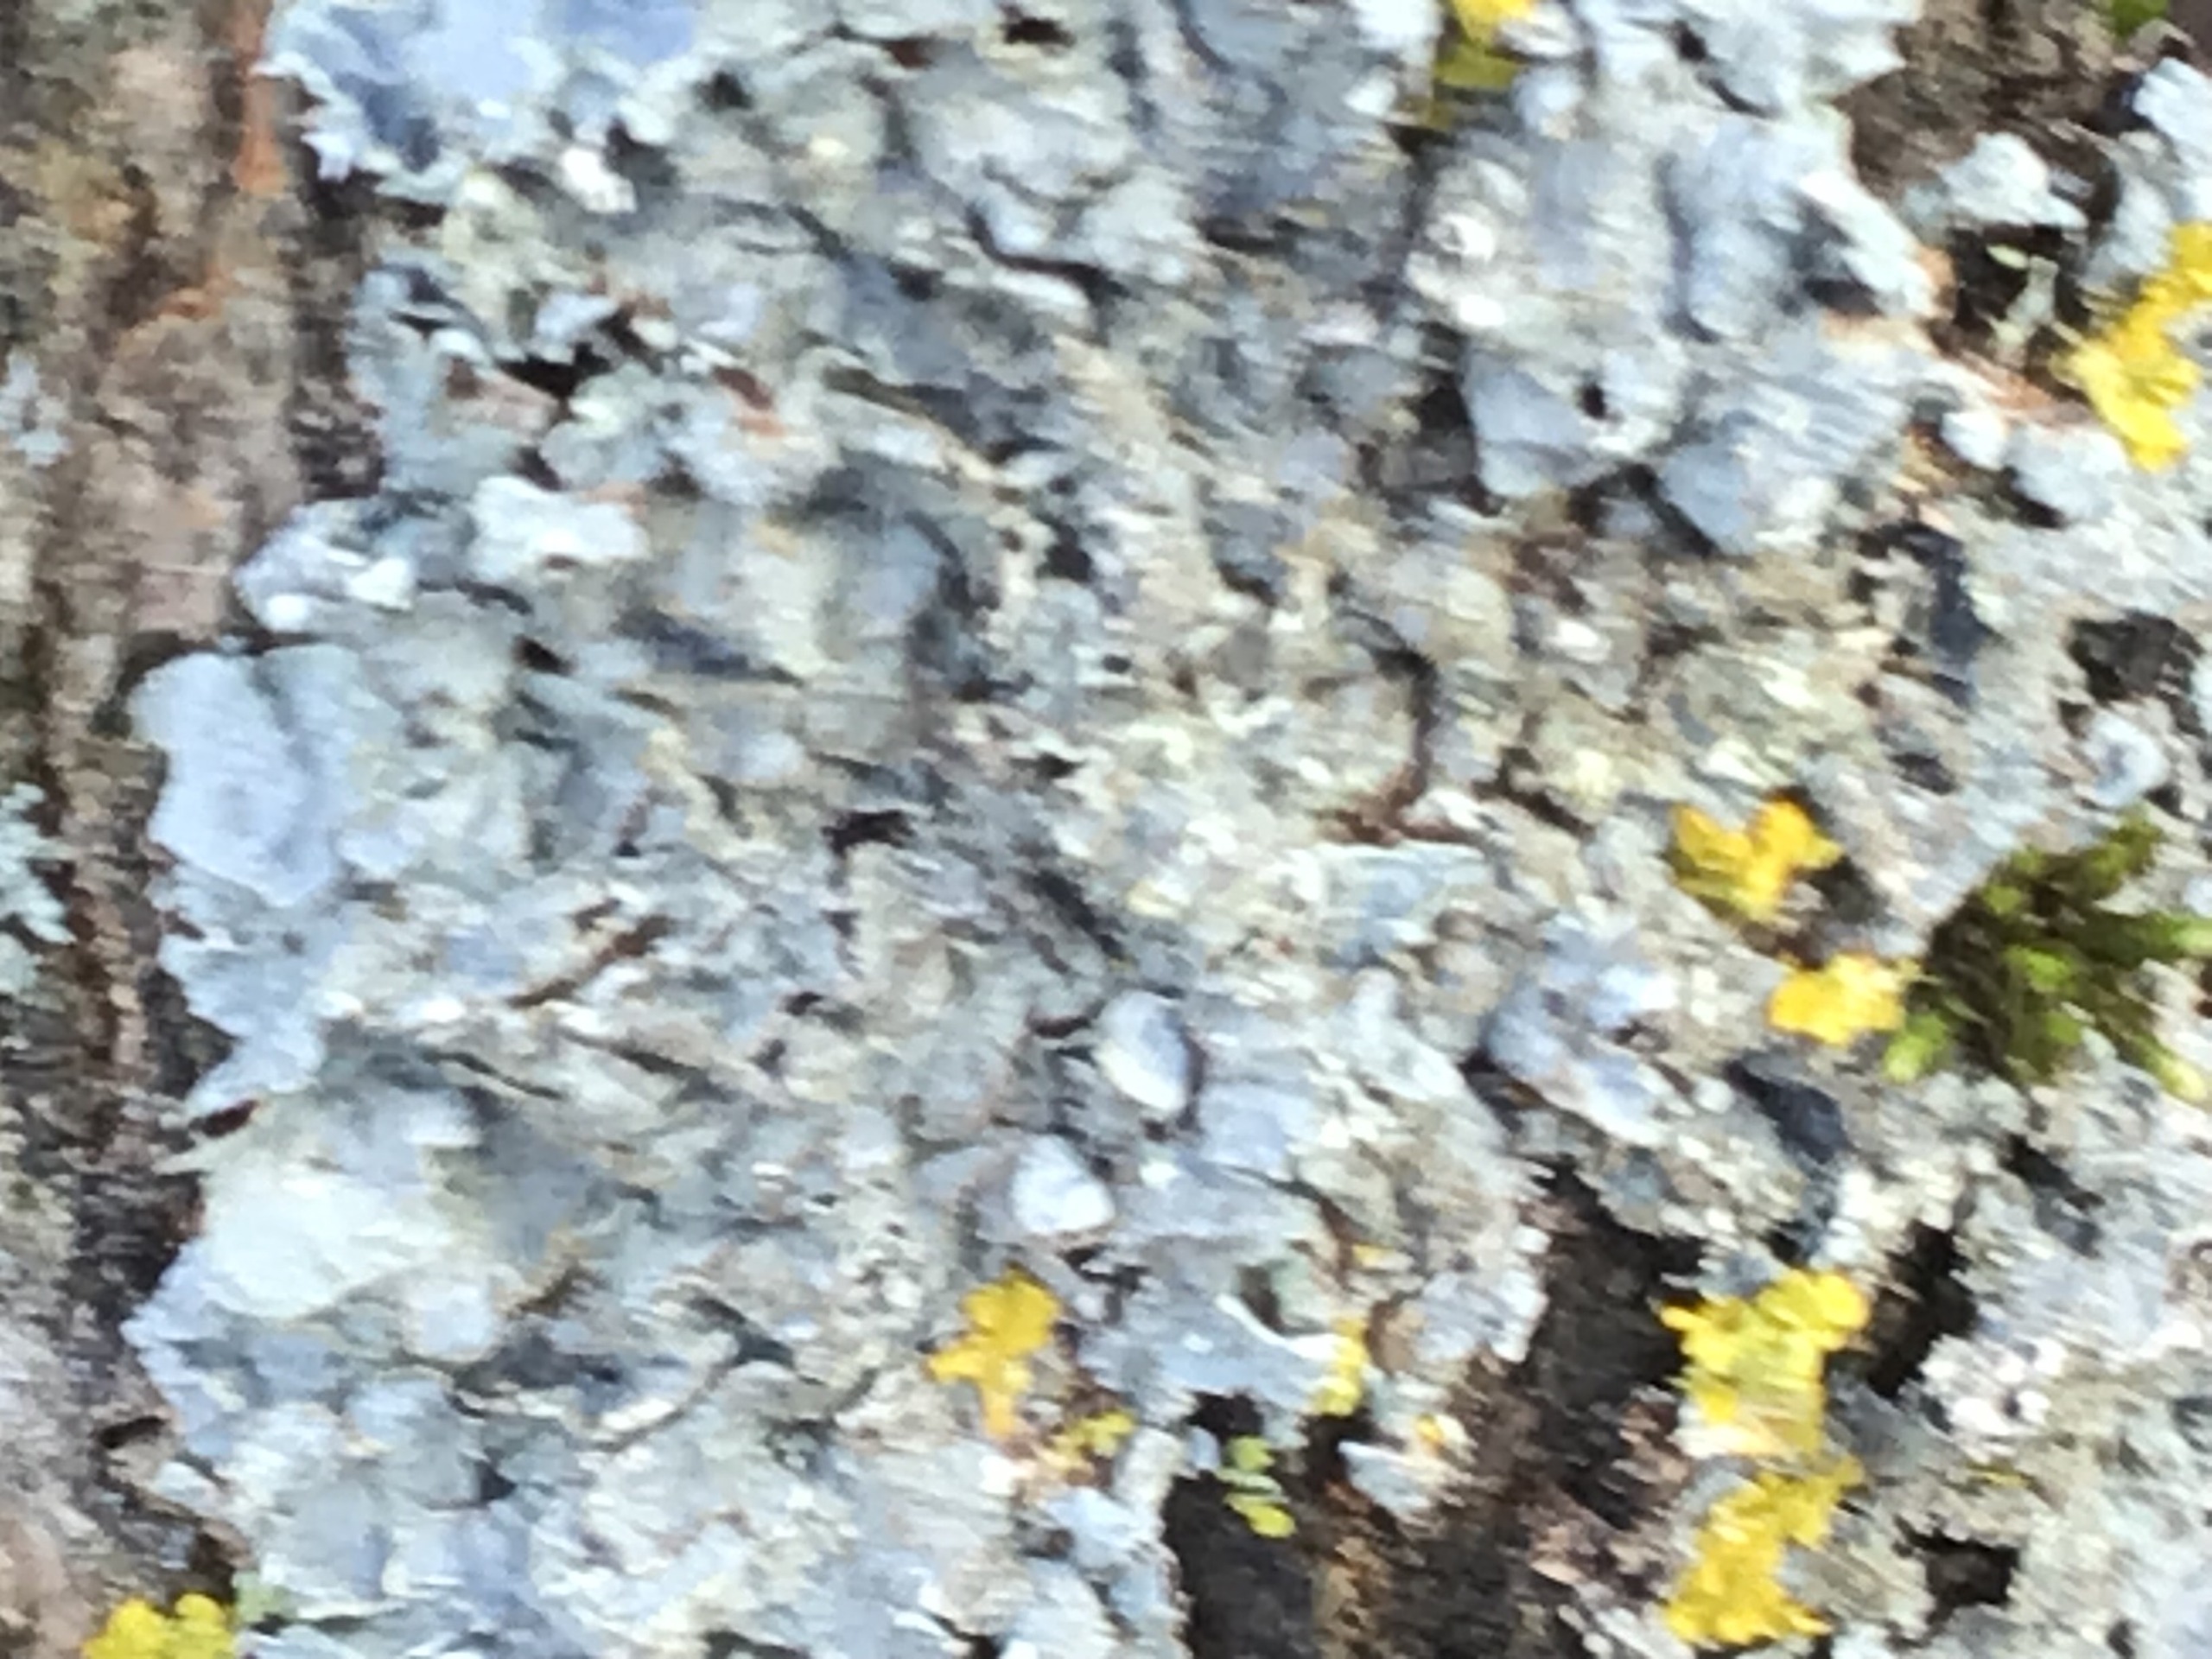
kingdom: Fungi
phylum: Ascomycota
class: Lecanoromycetes
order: Lecanorales
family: Parmeliaceae
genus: Parmelia
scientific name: Parmelia sulcata
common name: Rynket skållav
